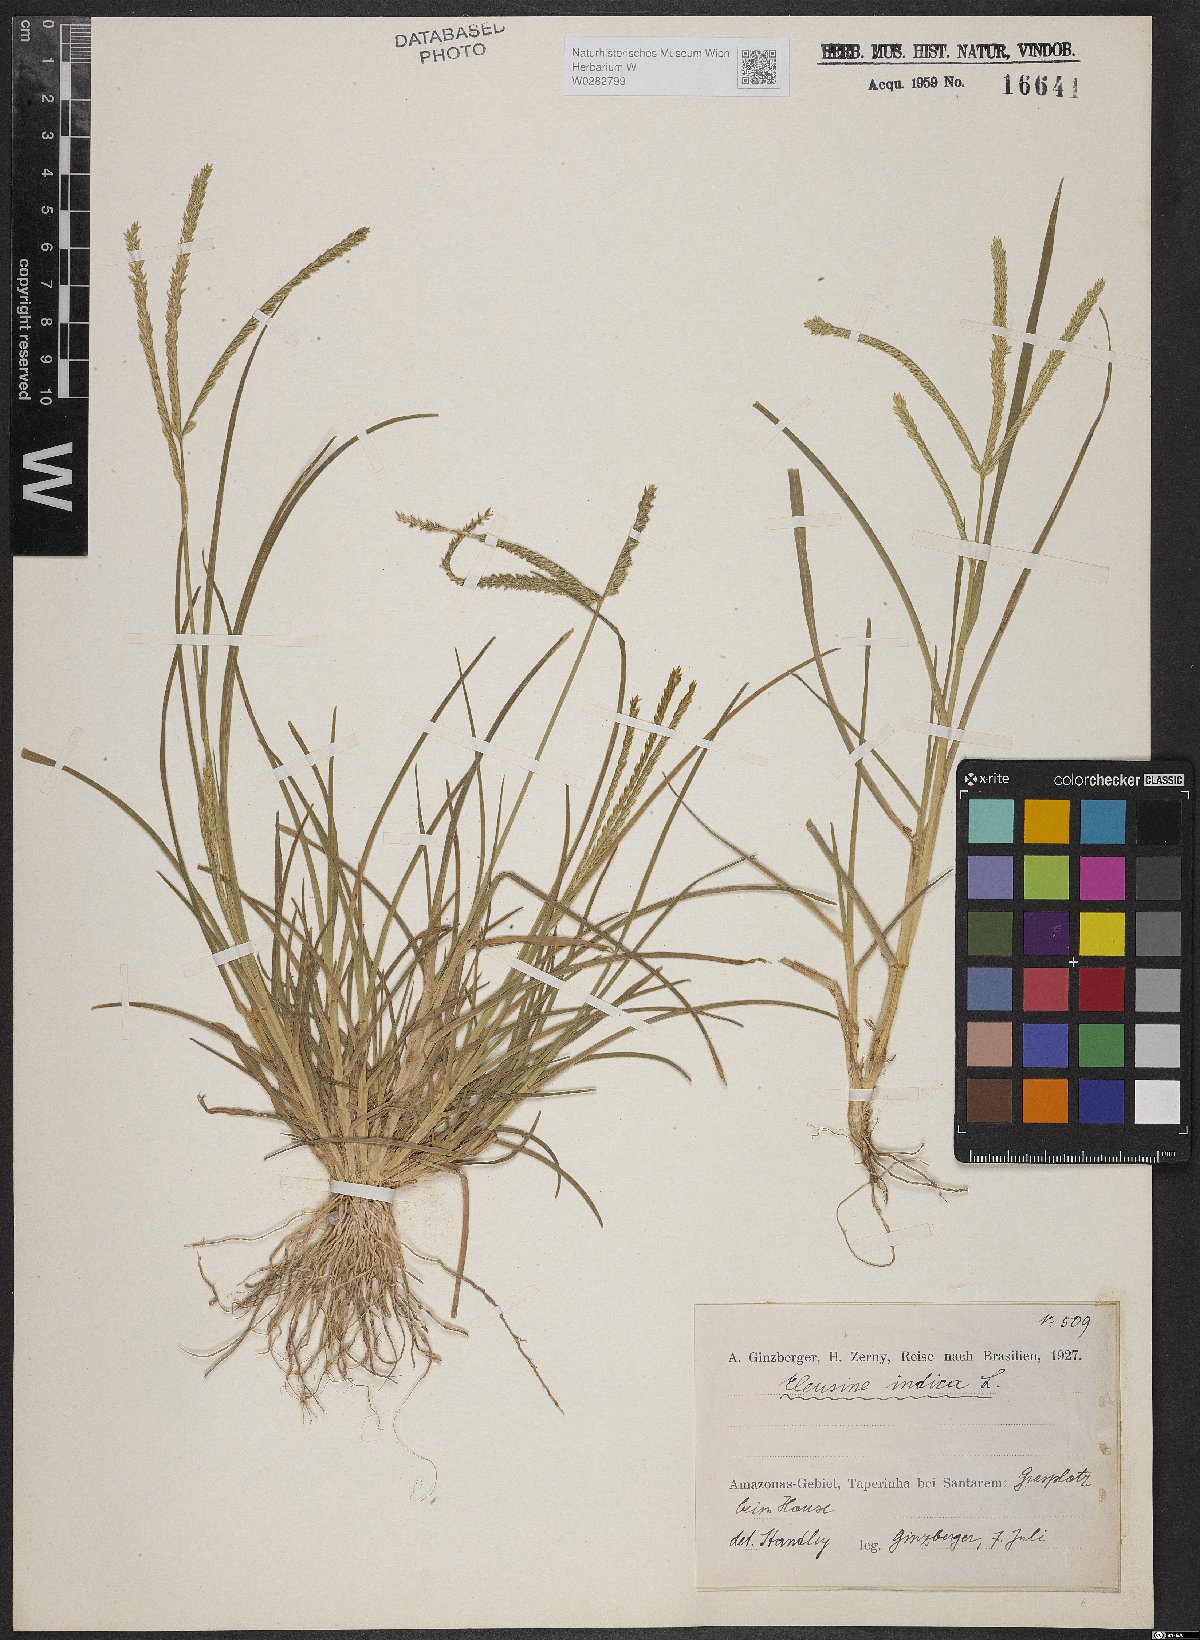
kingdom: Plantae
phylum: Tracheophyta
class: Liliopsida
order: Poales
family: Poaceae
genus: Eleusine
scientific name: Eleusine indica
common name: Yard-grass
